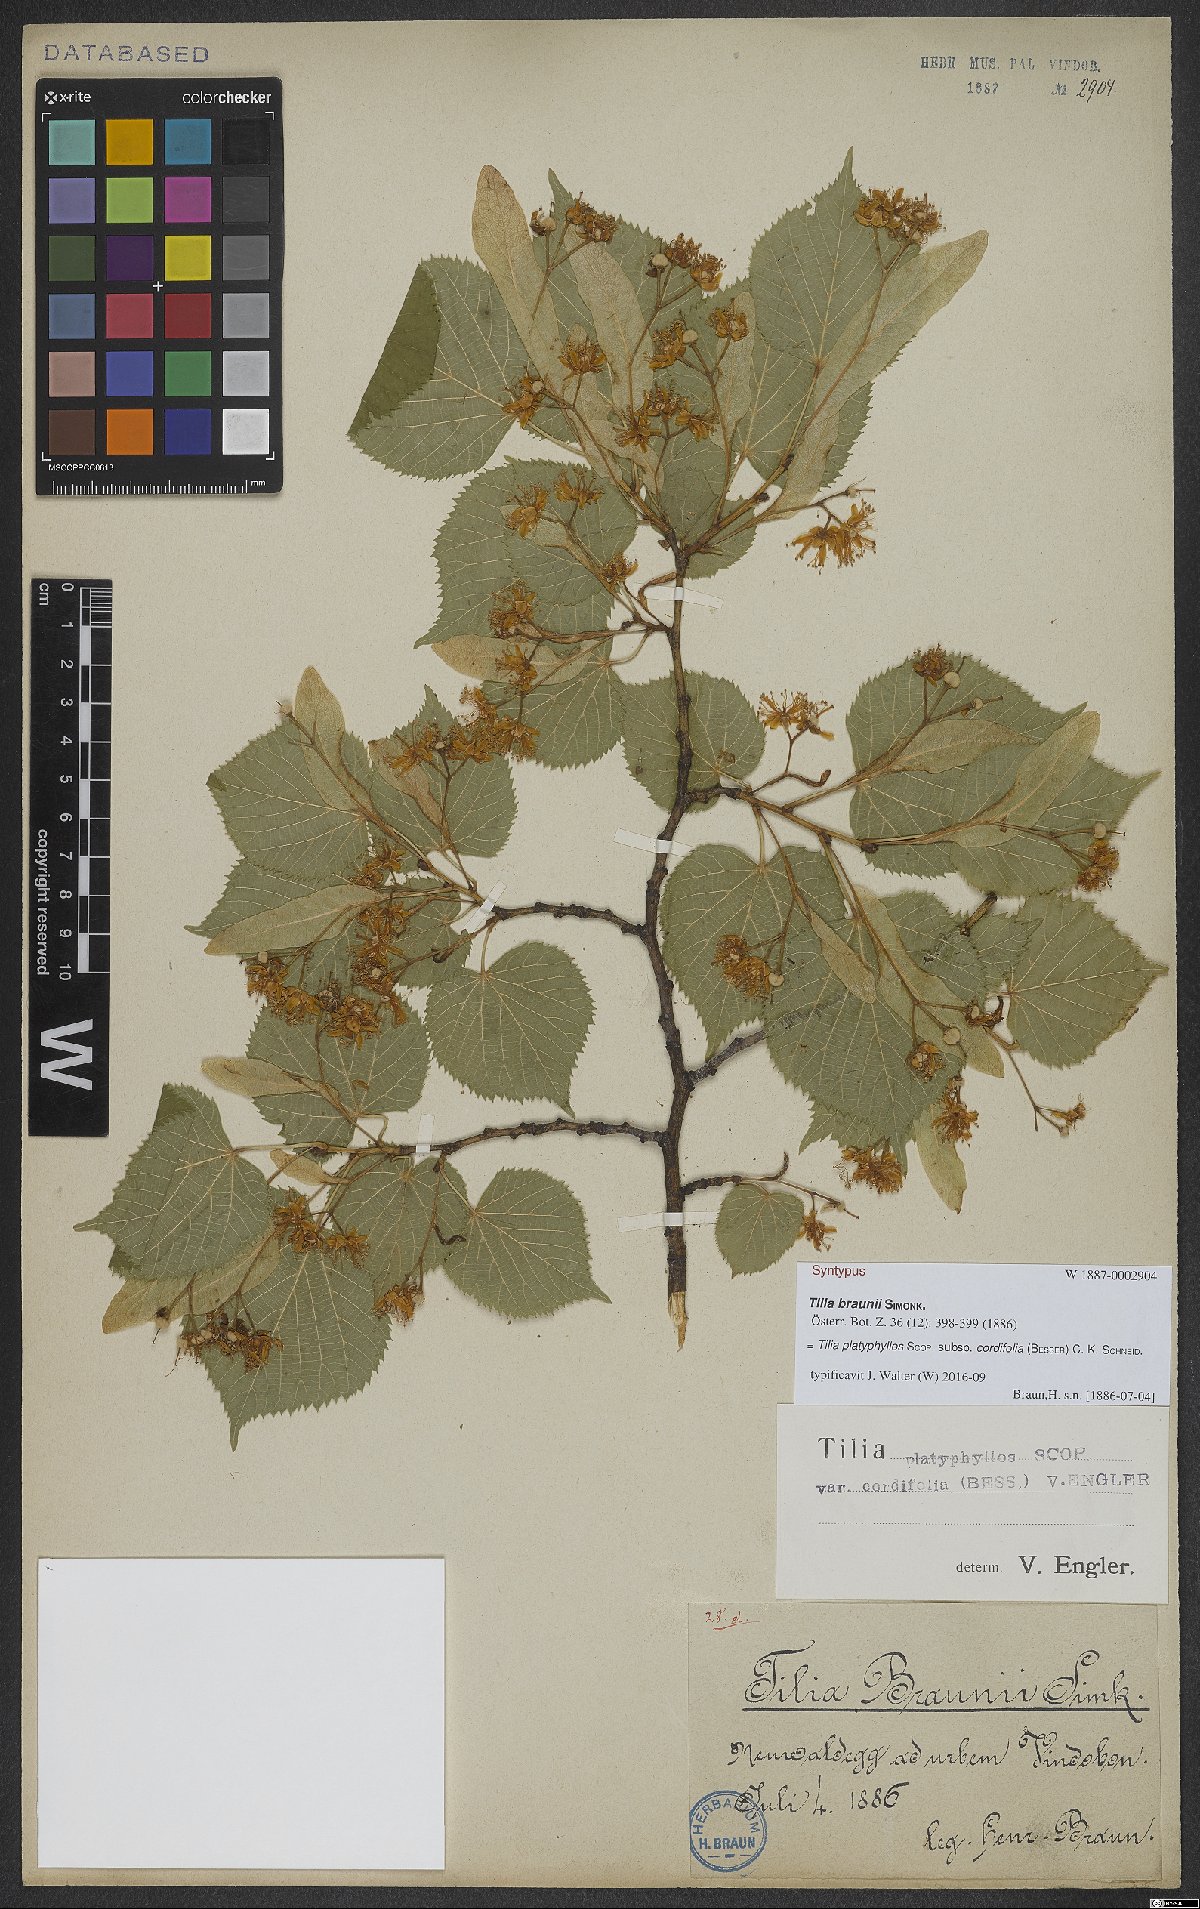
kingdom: Plantae
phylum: Tracheophyta
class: Magnoliopsida
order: Malvales
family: Malvaceae
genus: Tilia
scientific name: Tilia platyphyllos
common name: Large-leaved lime
